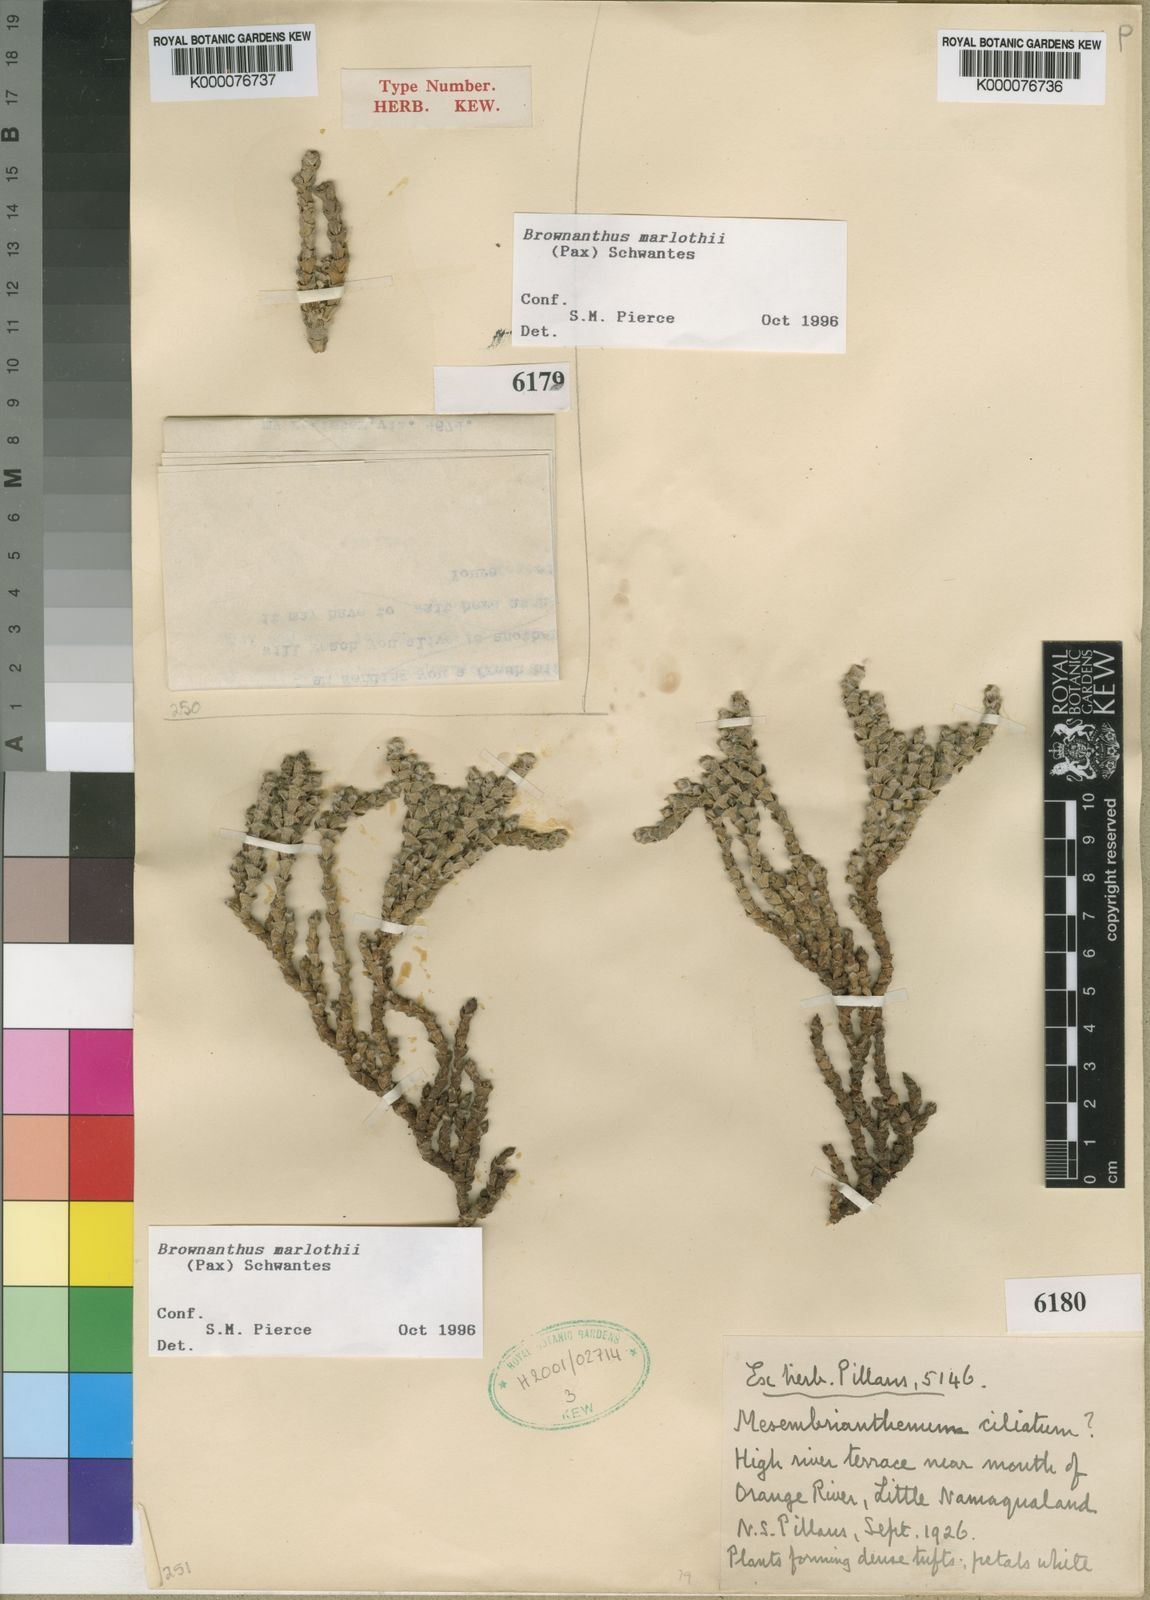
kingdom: Plantae
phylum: Tracheophyta
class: Magnoliopsida
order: Caryophyllales
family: Aizoaceae
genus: Mesembryanthemum
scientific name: Mesembryanthemum marlothii
